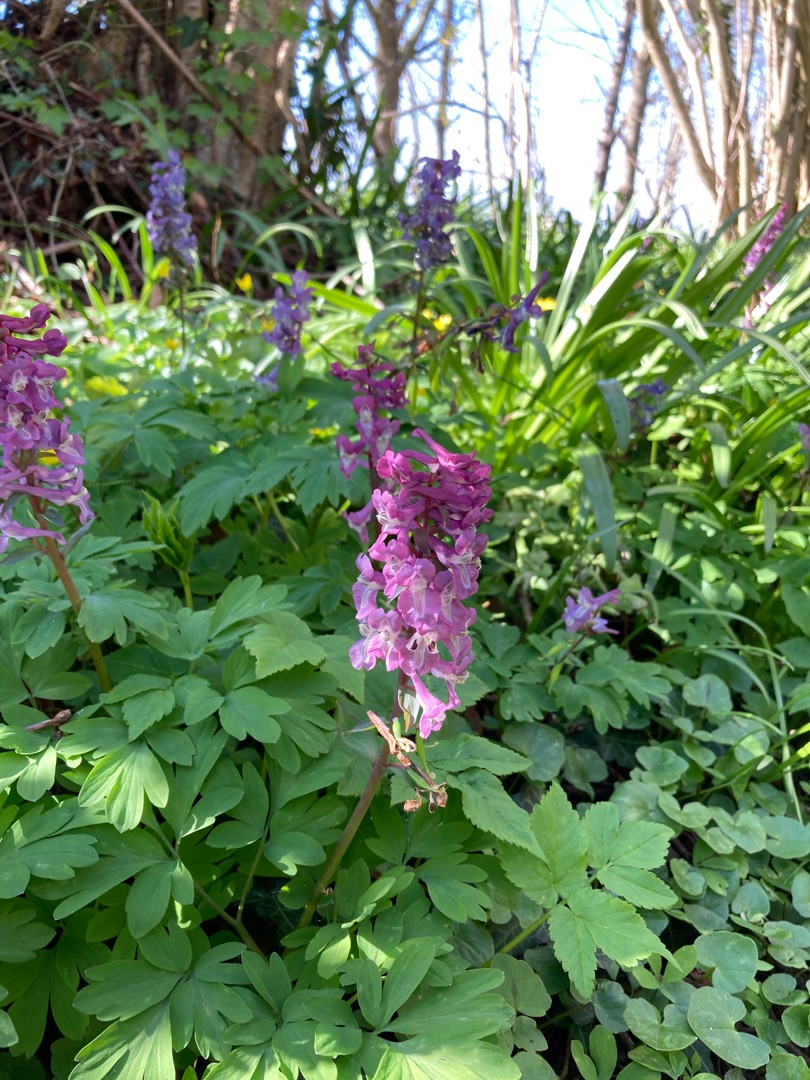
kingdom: Plantae
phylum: Tracheophyta
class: Magnoliopsida
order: Ranunculales
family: Papaveraceae
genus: Corydalis
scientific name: Corydalis cava
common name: Hulrodet lærkespore
